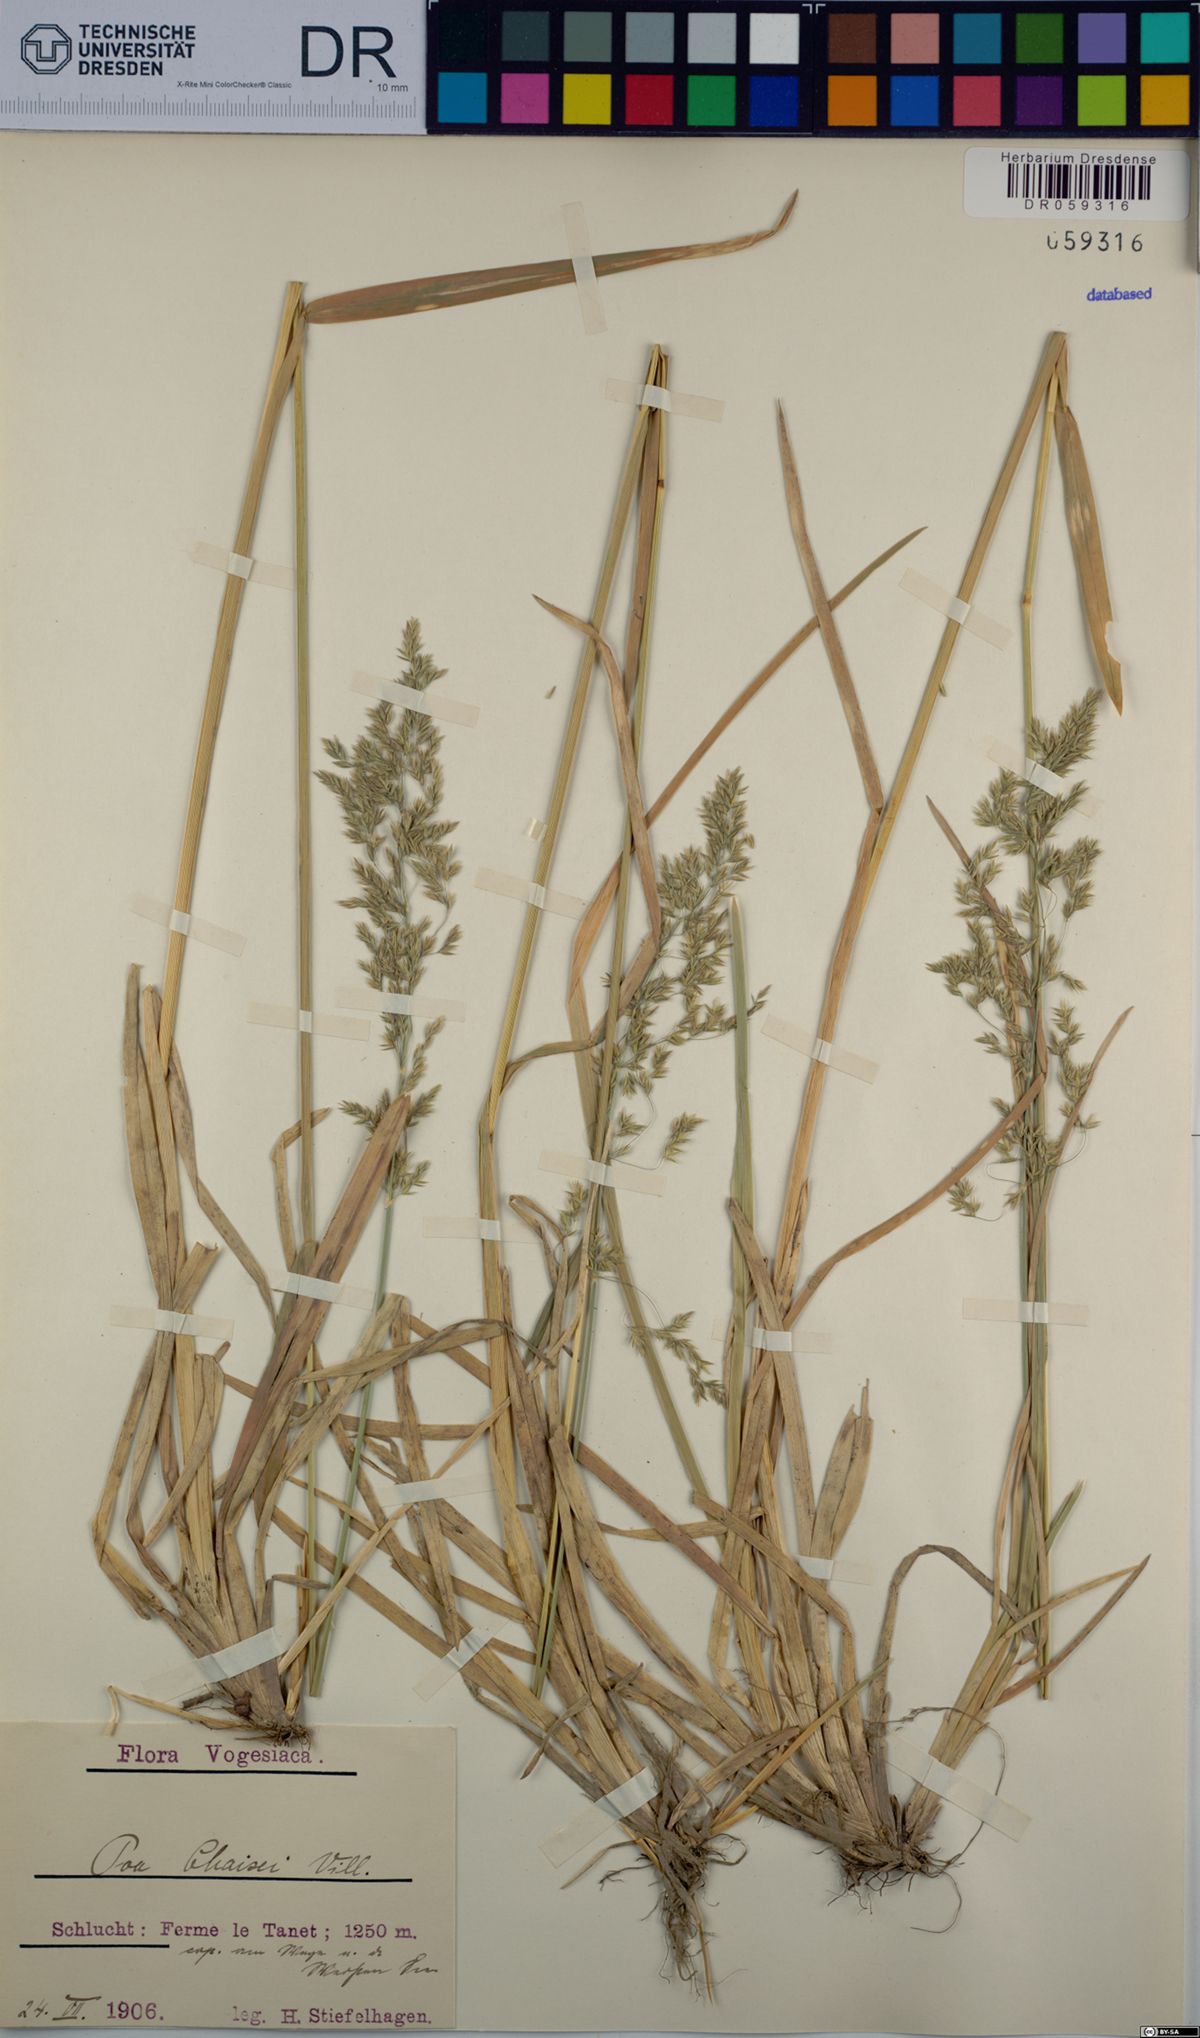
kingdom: Plantae
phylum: Tracheophyta
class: Liliopsida
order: Poales
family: Poaceae
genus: Poa
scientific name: Poa chaixii
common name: Broad-leaved meadow-grass
